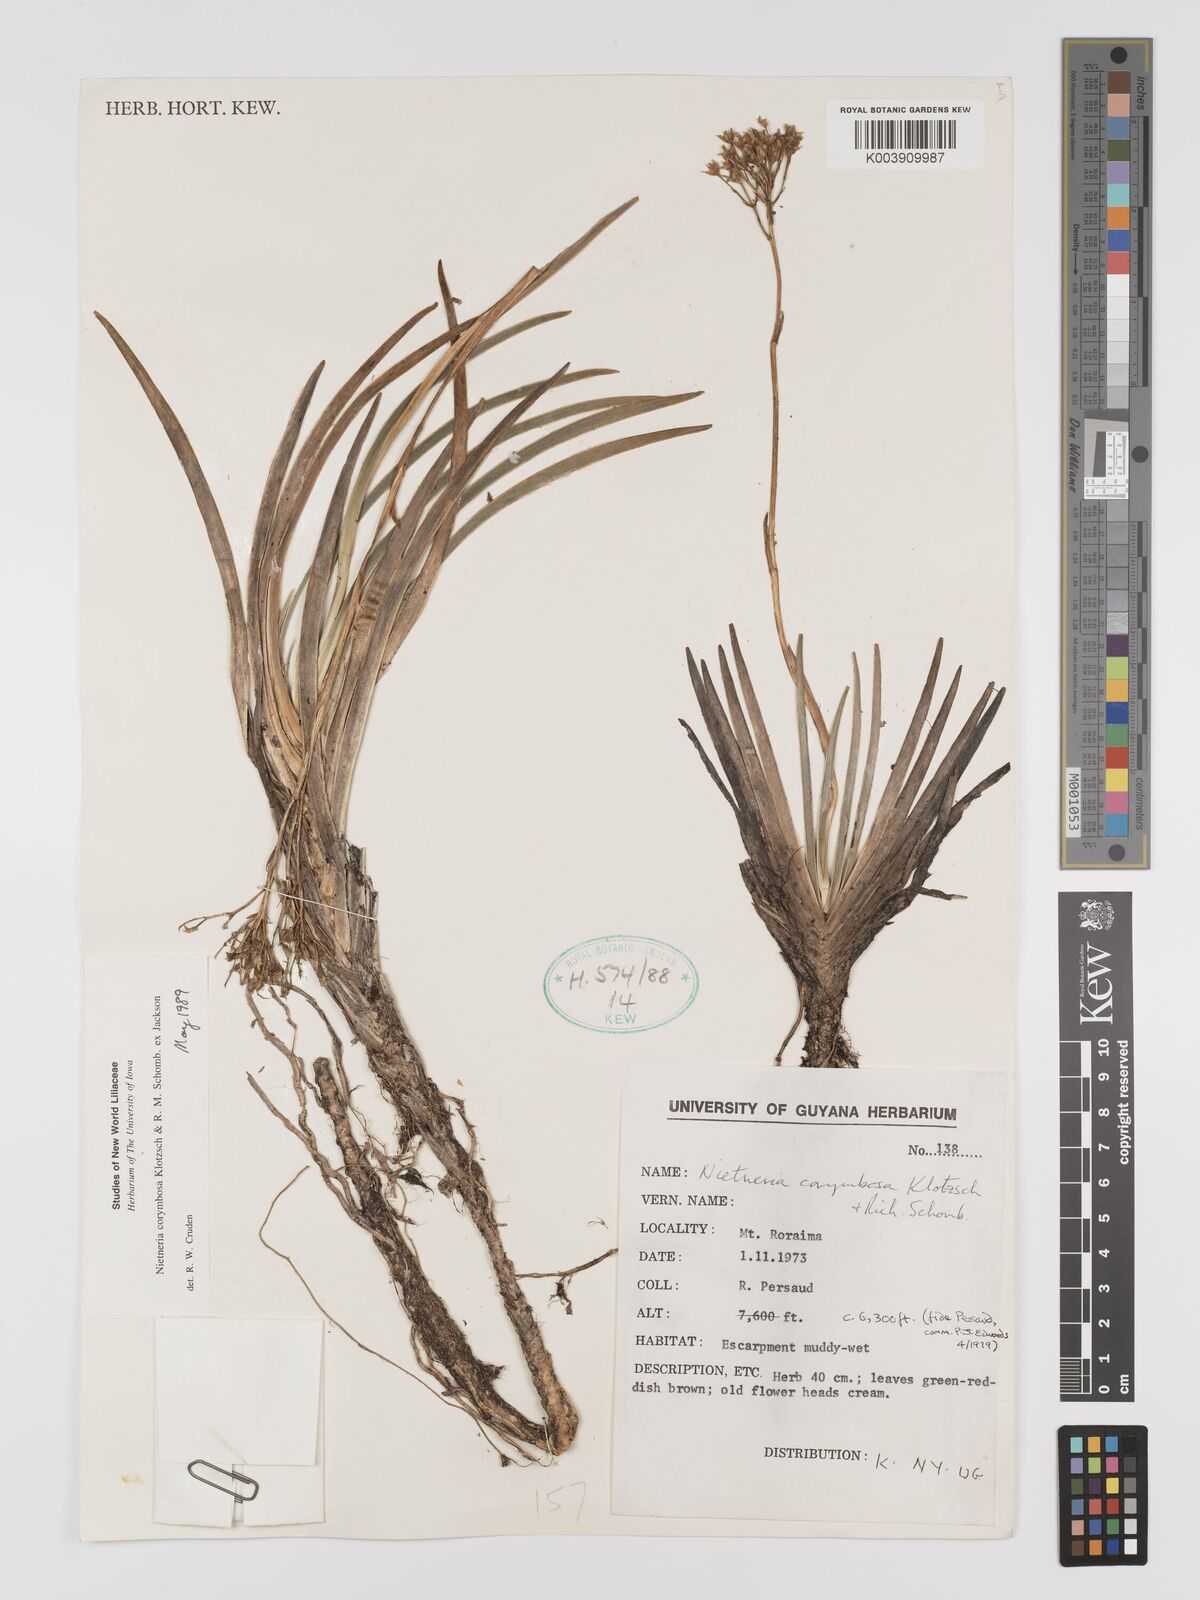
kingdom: Plantae
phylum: Tracheophyta
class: Liliopsida
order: Dioscoreales
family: Nartheciaceae
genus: Nietneria
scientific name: Nietneria corymbosa
